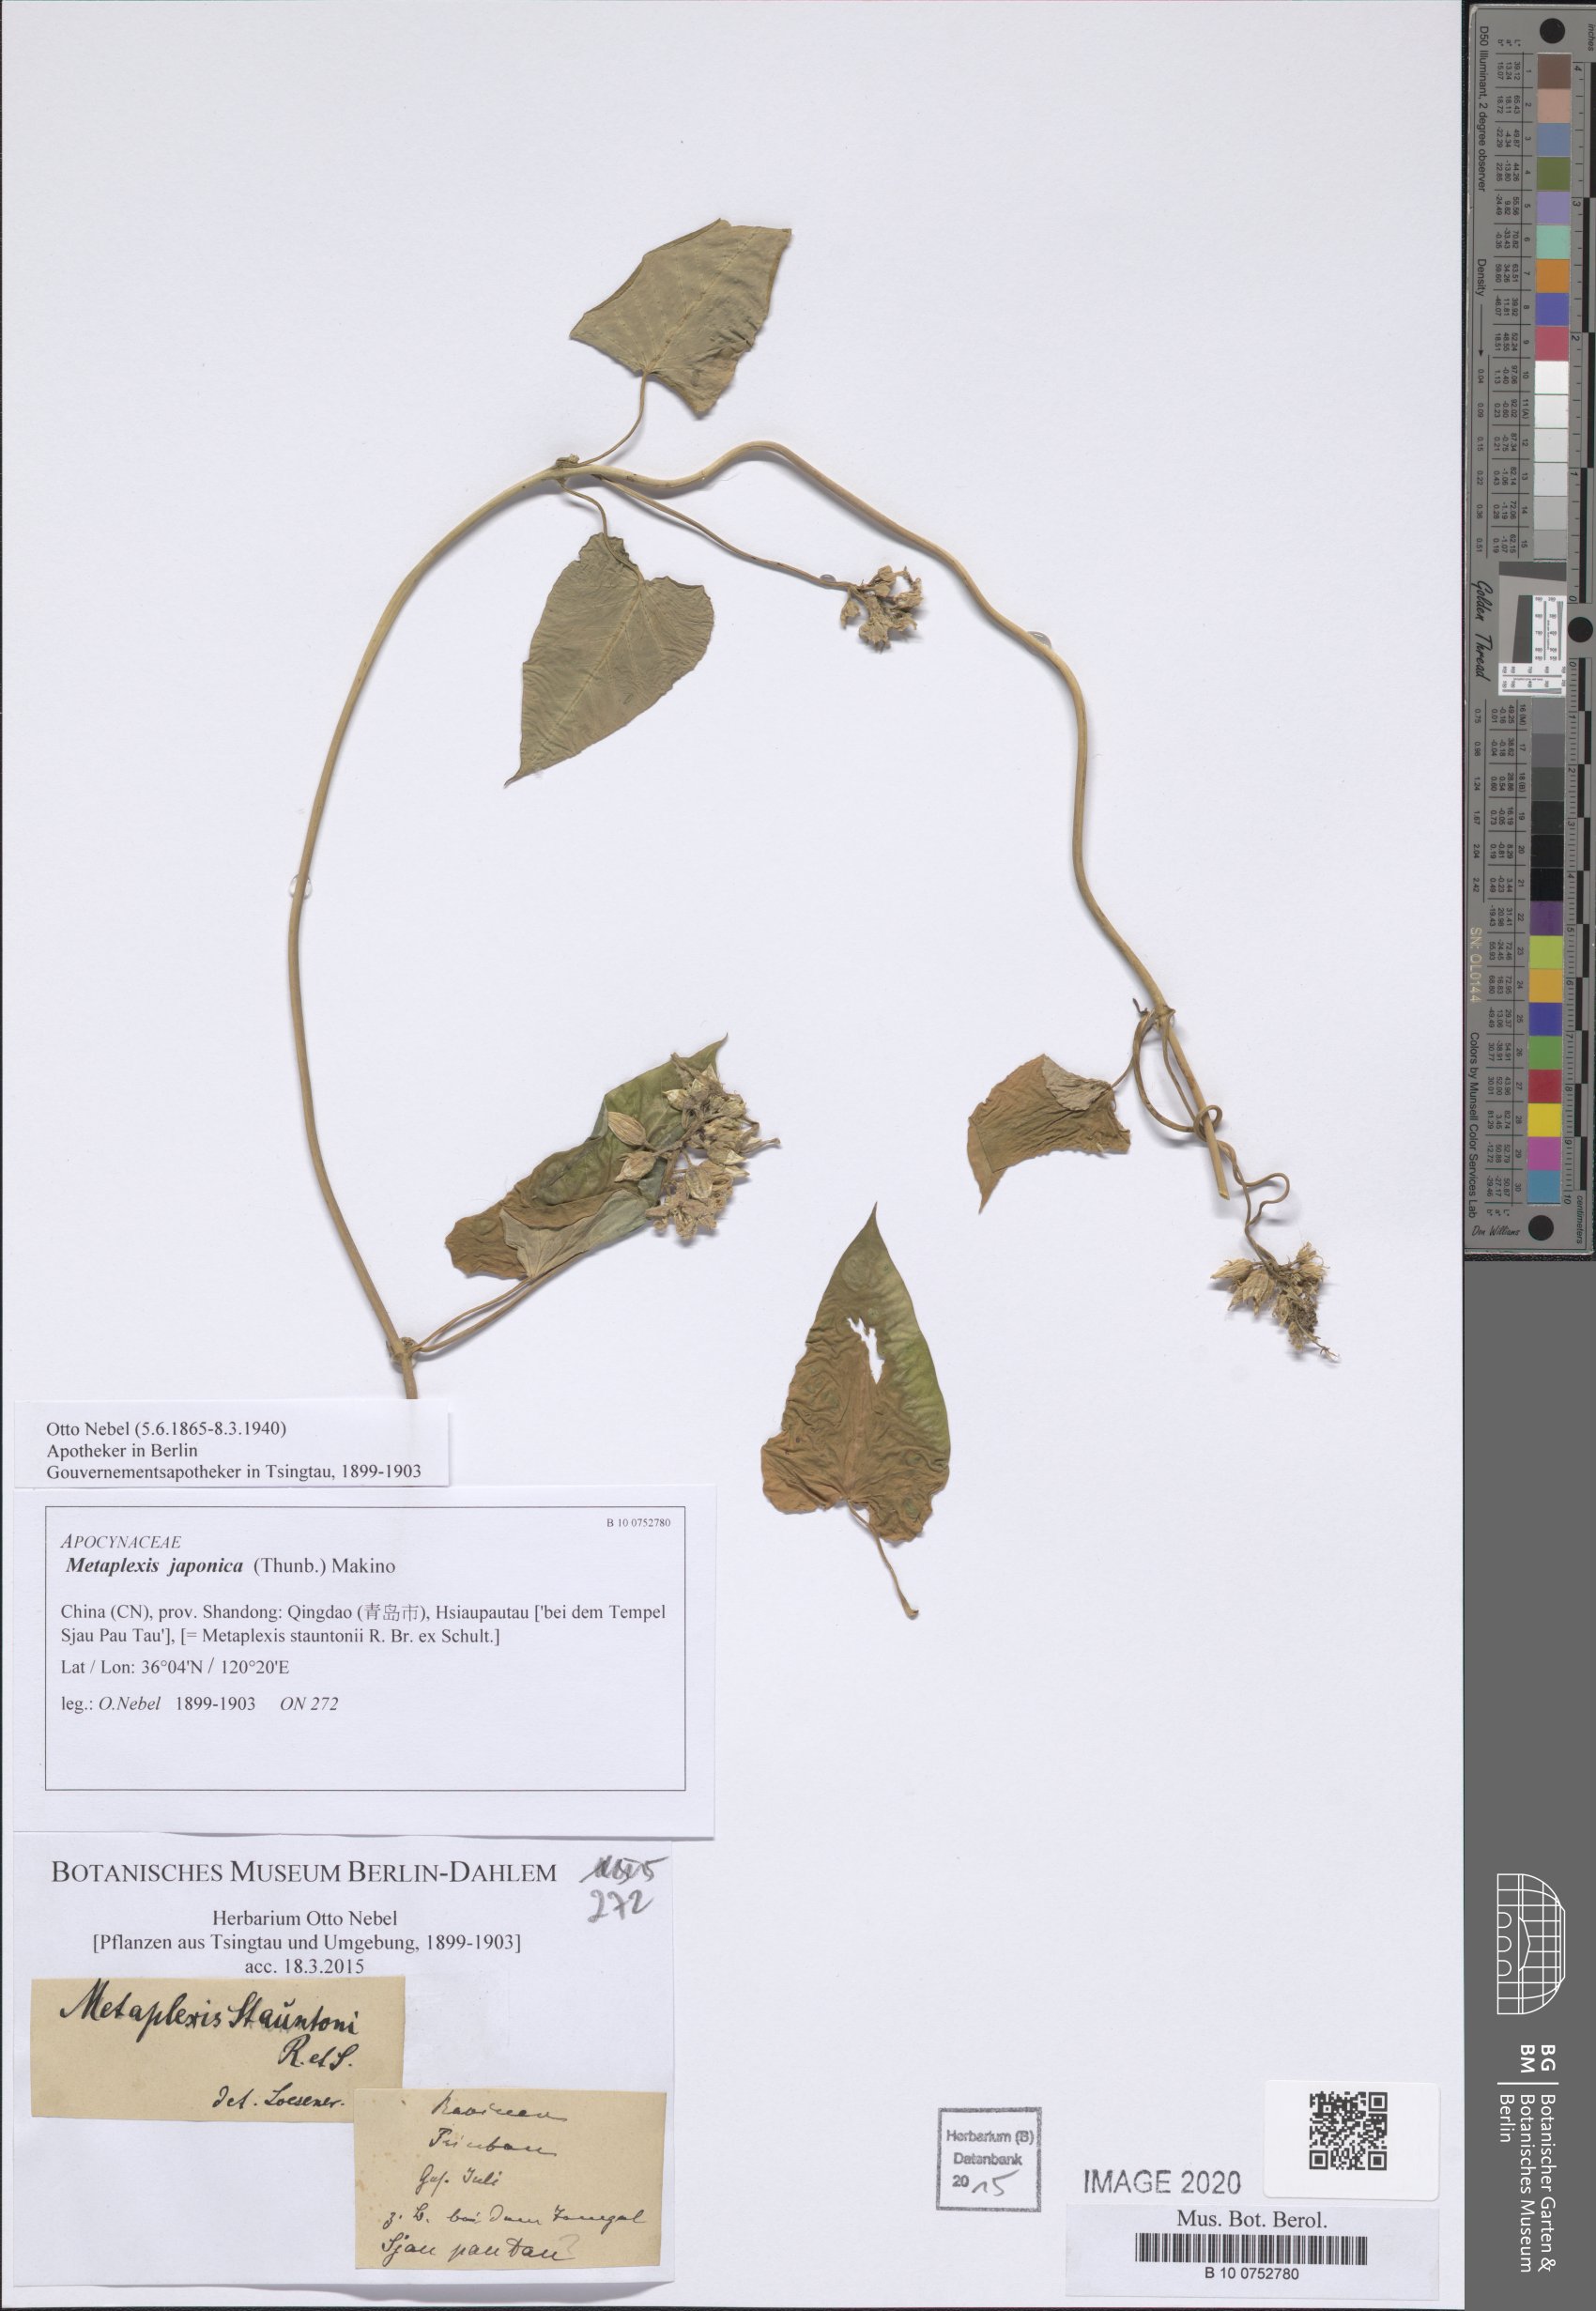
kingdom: Plantae
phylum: Tracheophyta
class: Magnoliopsida
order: Gentianales
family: Apocynaceae
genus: Cynanchum
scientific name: Cynanchum rostellatum
